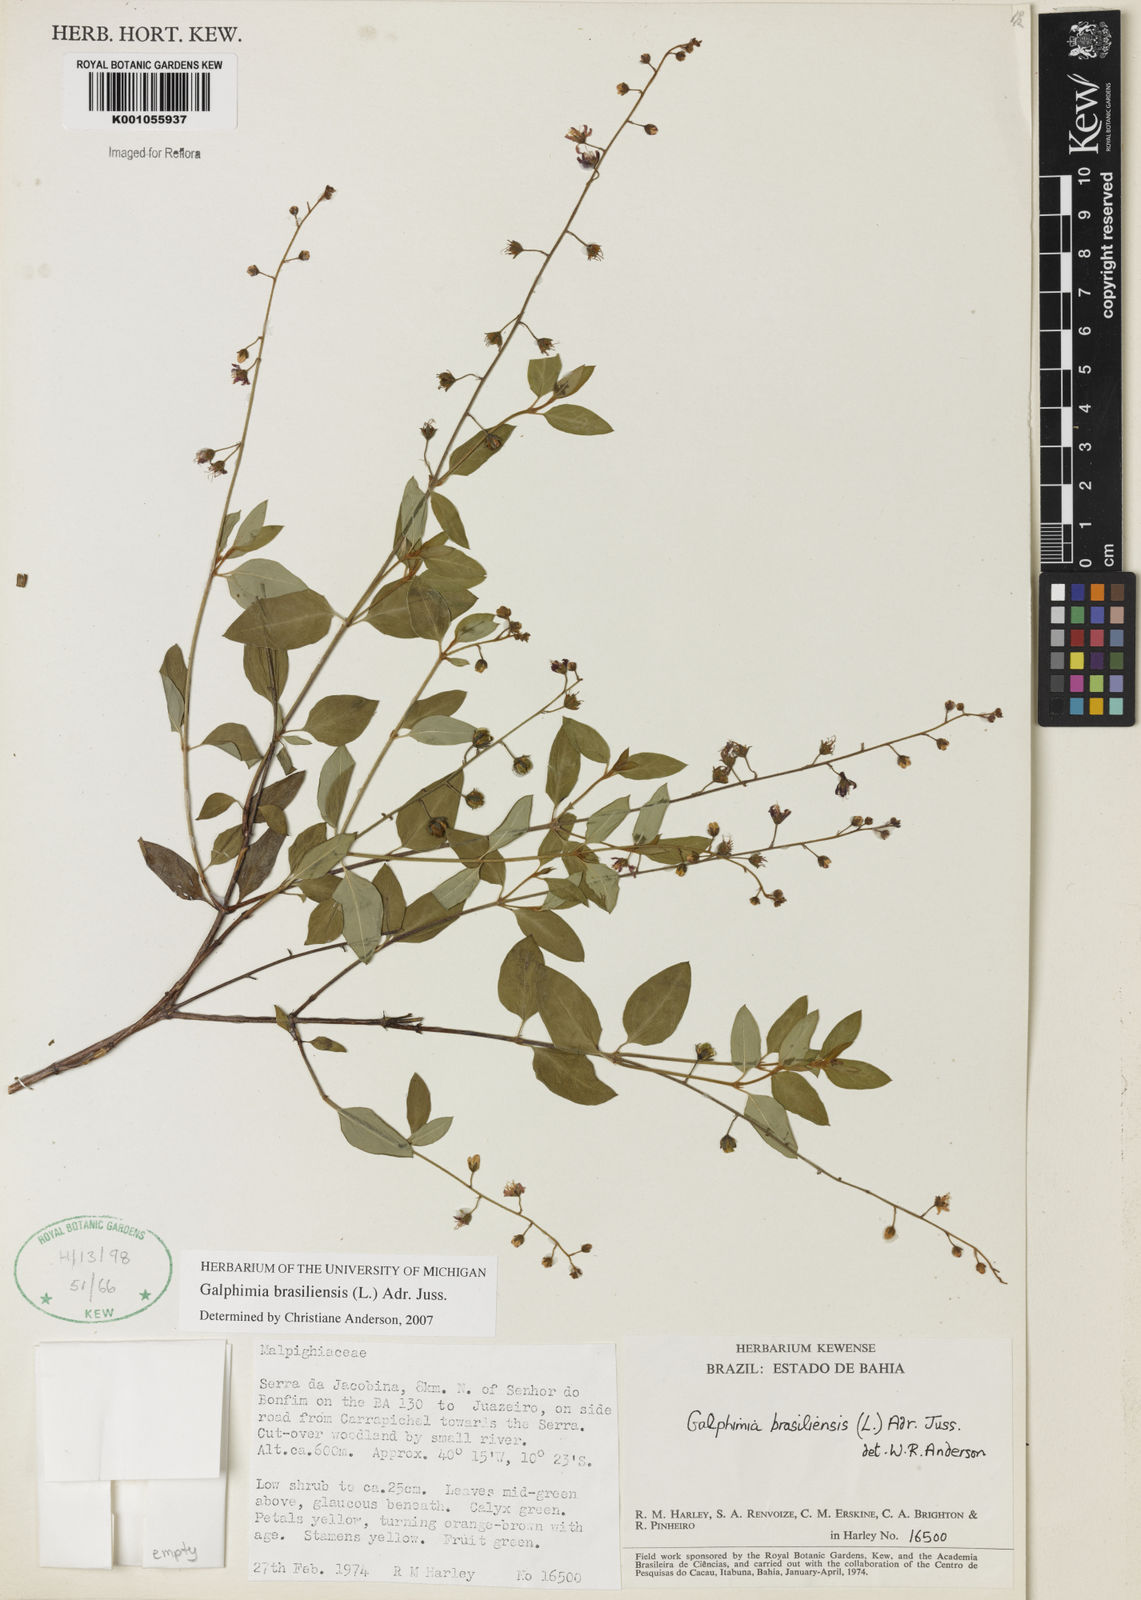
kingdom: Plantae
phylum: Tracheophyta
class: Magnoliopsida
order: Malpighiales
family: Malpighiaceae
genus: Galphimia
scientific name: Galphimia brasiliensis
